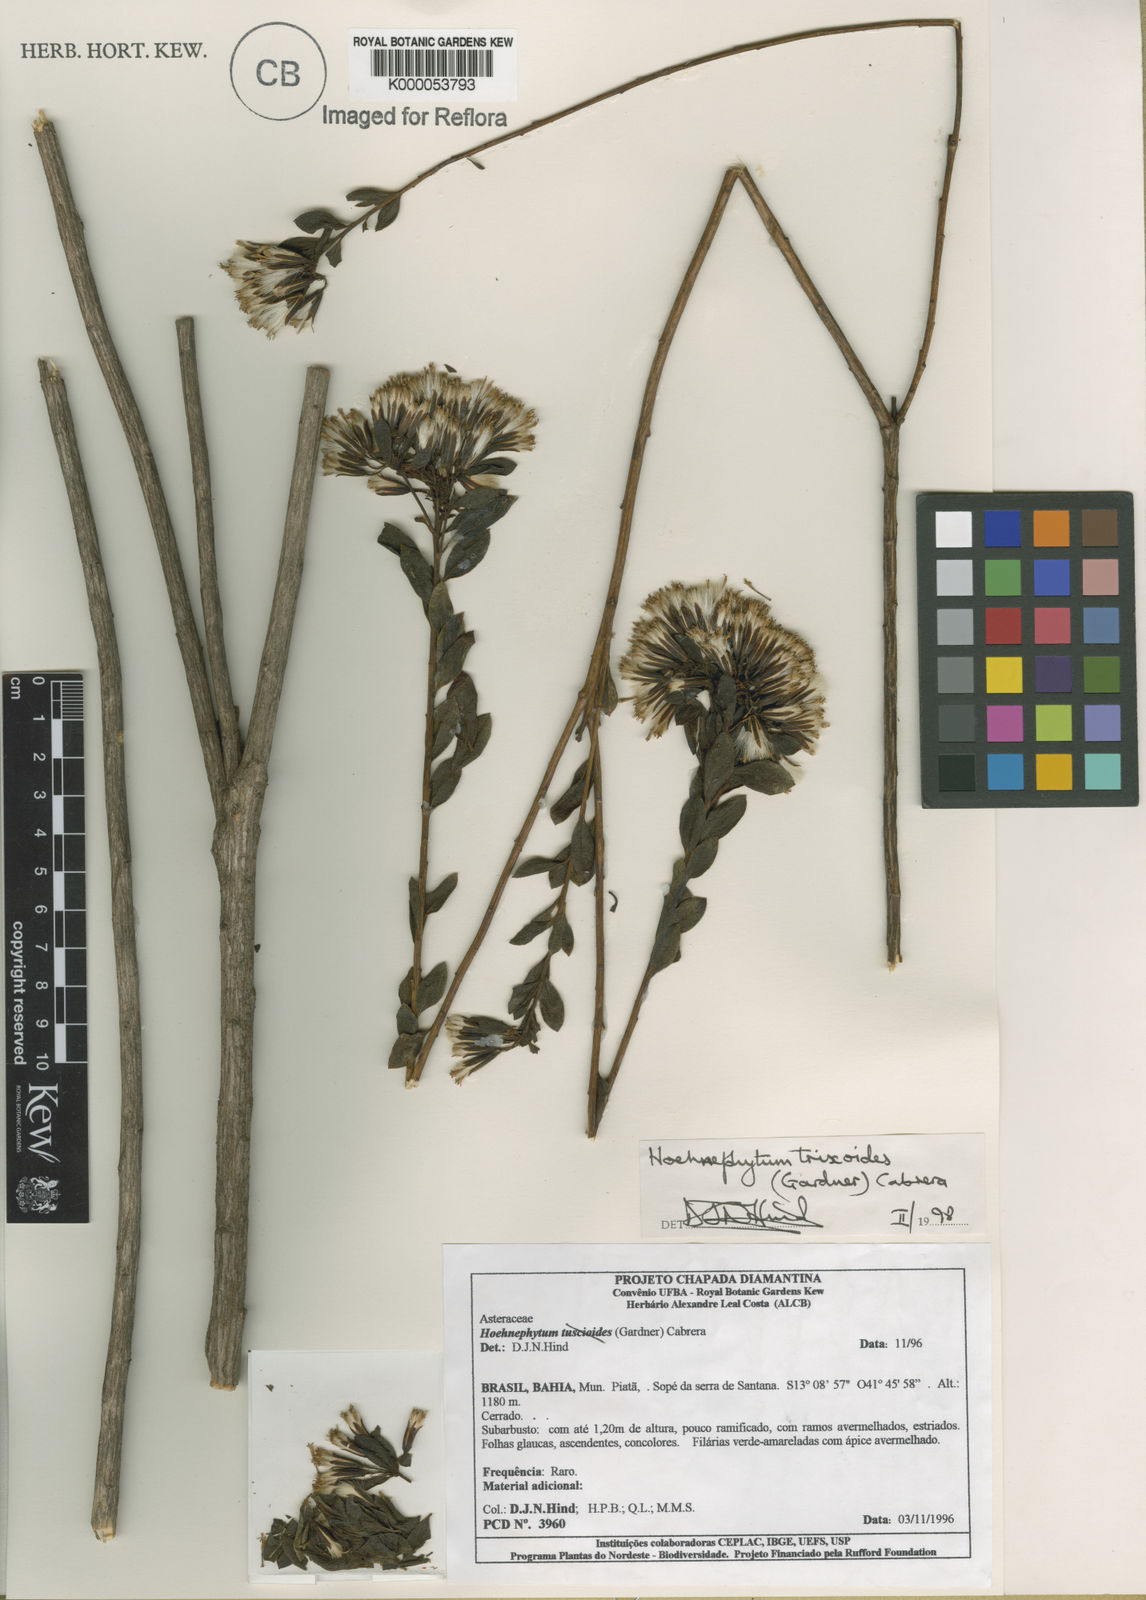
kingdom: Plantae
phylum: Tracheophyta
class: Magnoliopsida
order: Asterales
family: Asteraceae
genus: Hoehnephytum
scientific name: Hoehnephytum trixoides
